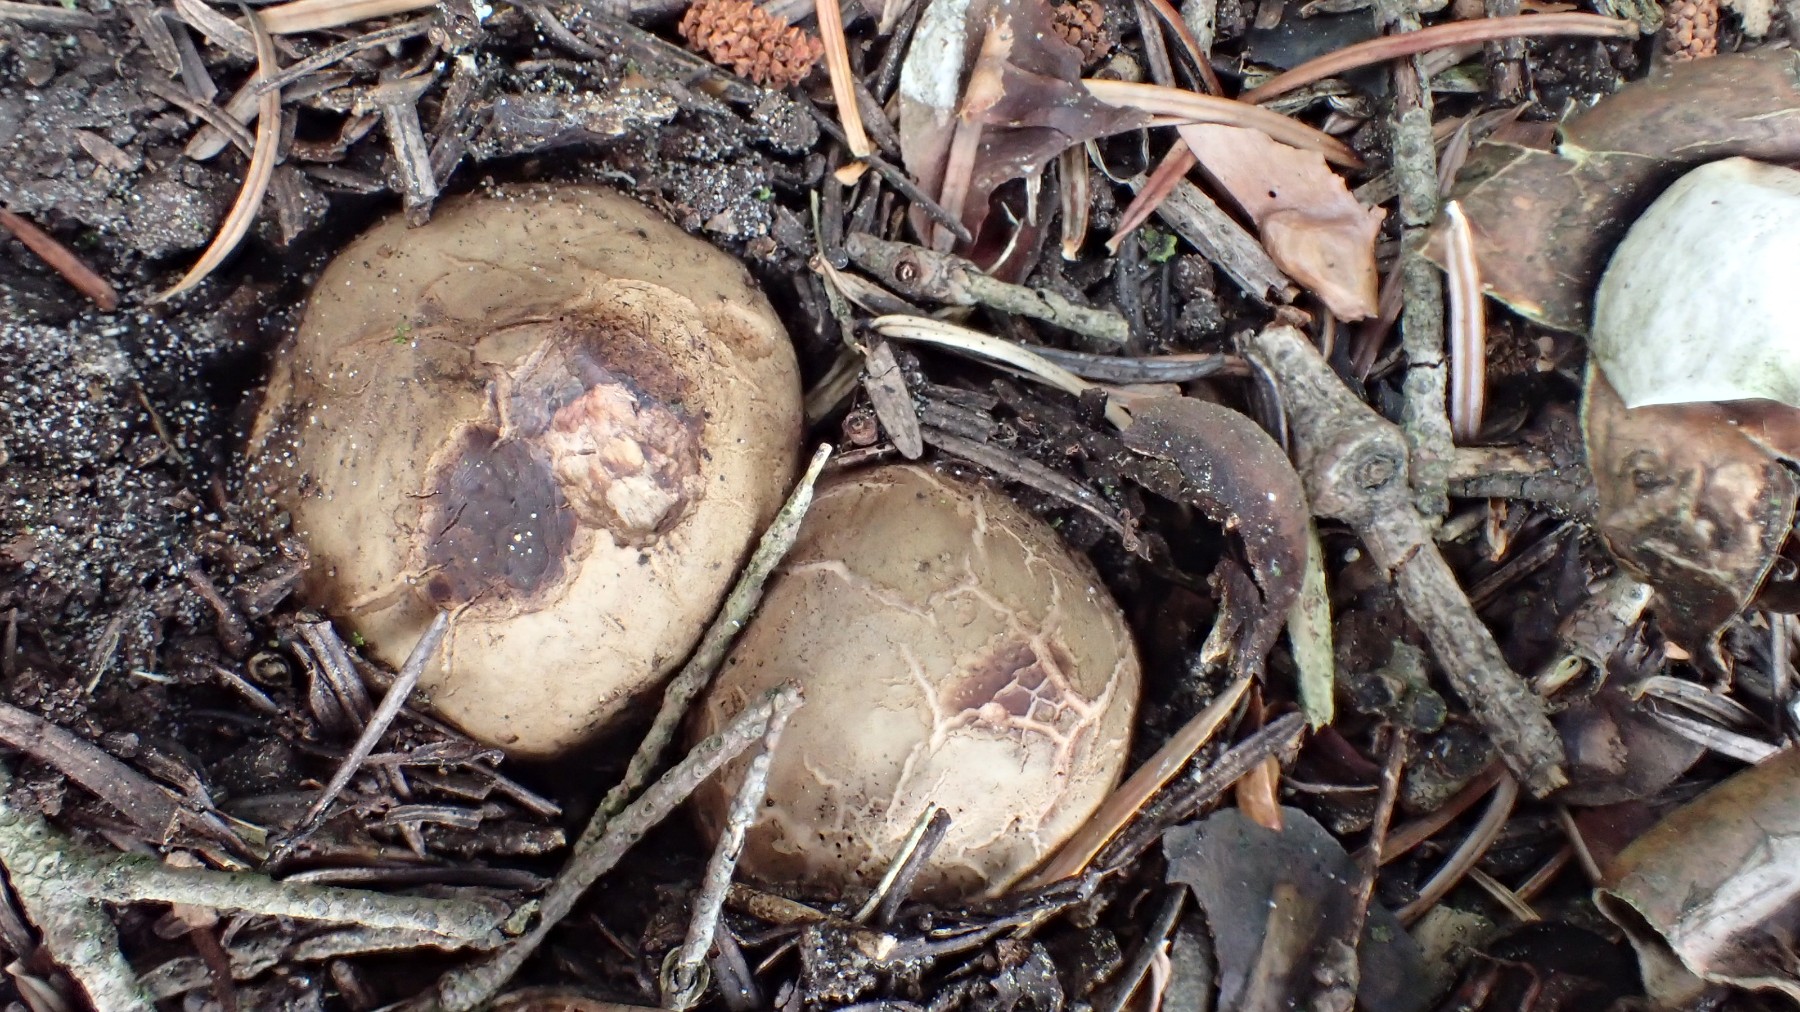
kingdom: Fungi
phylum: Basidiomycota
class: Agaricomycetes
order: Geastrales
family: Geastraceae
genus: Geastrum
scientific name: Geastrum michelianum
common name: kødet stjernebold
